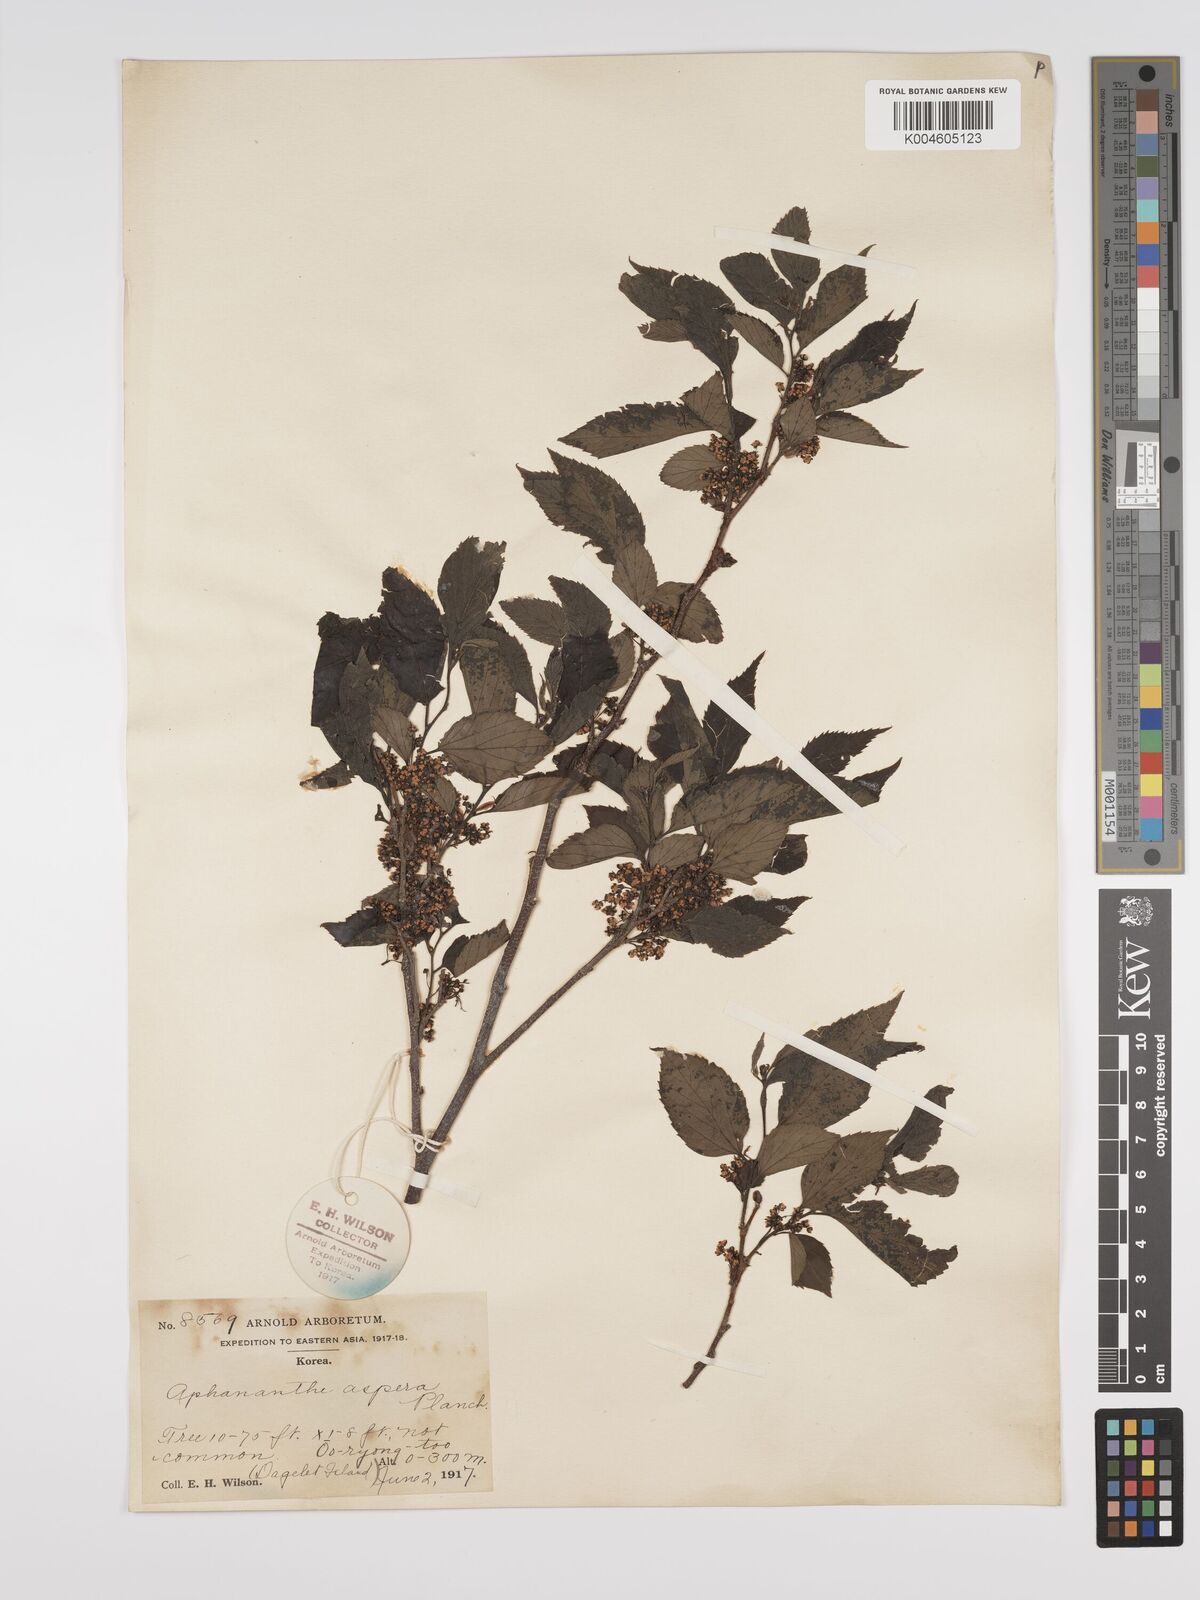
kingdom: Plantae
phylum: Tracheophyta
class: Magnoliopsida
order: Rosales
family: Cannabaceae
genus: Aphananthe
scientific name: Aphananthe aspera
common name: Mukutree
